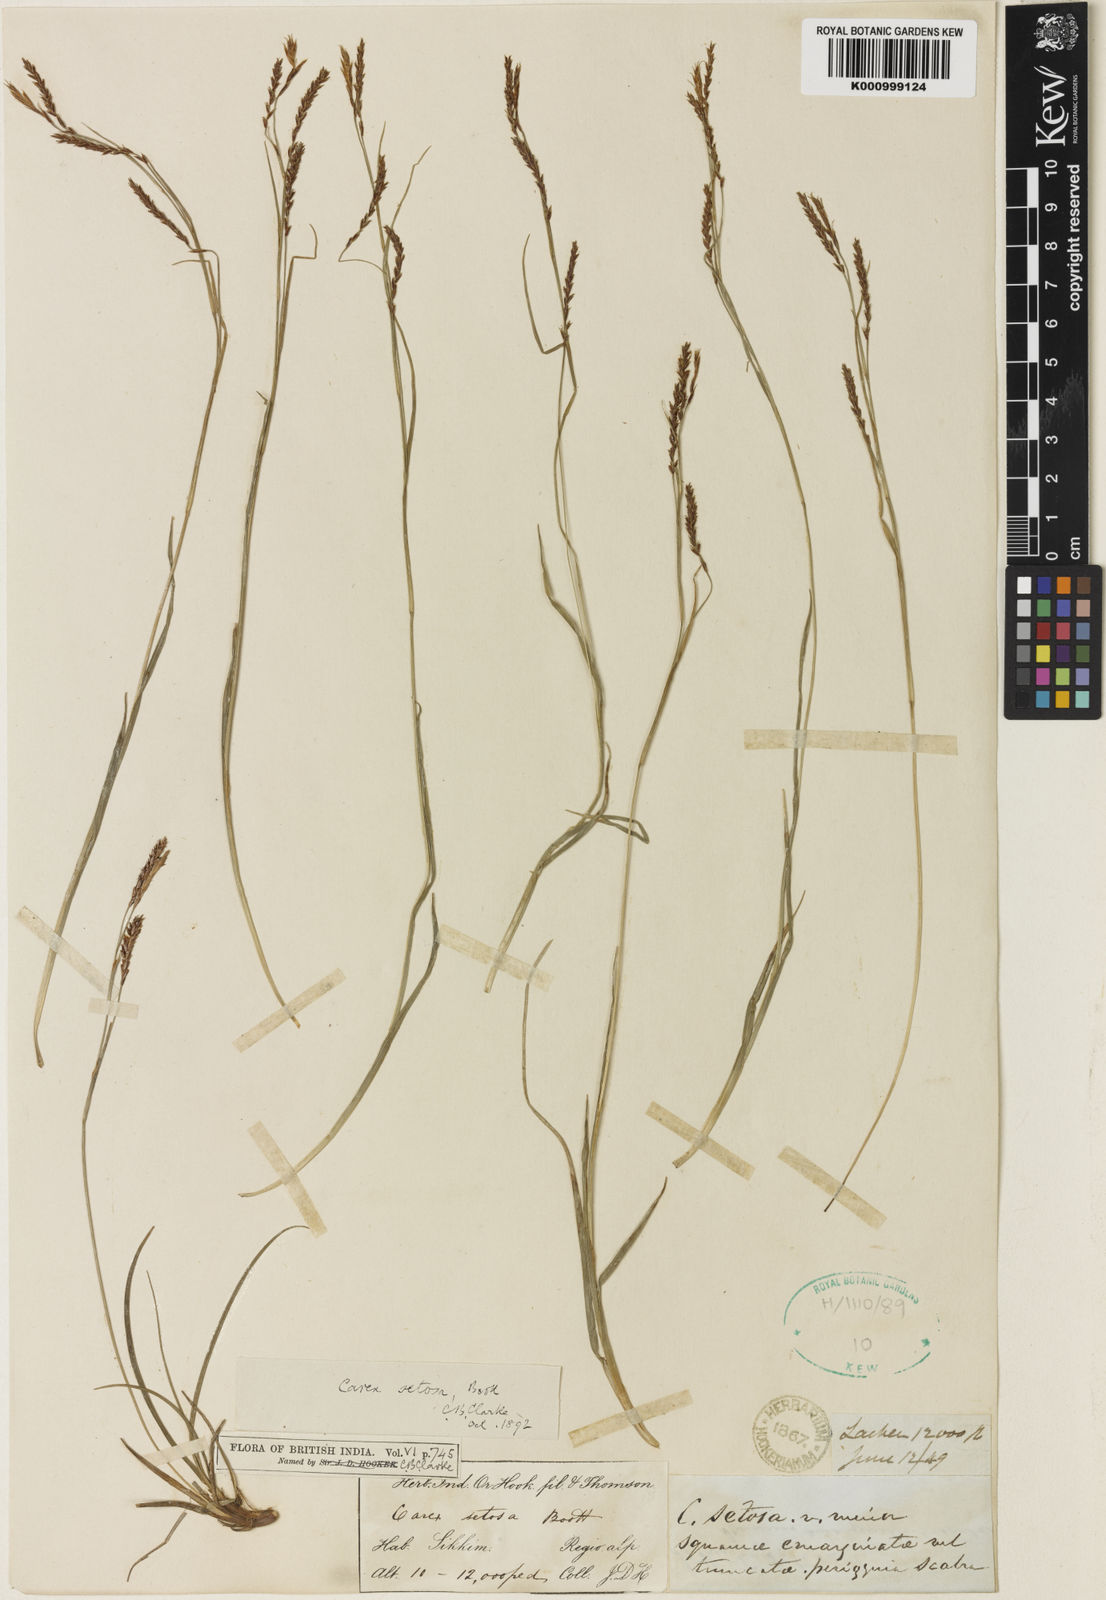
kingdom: Plantae
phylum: Tracheophyta
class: Liliopsida
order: Poales
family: Cyperaceae
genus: Carex
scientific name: Carex setosa
